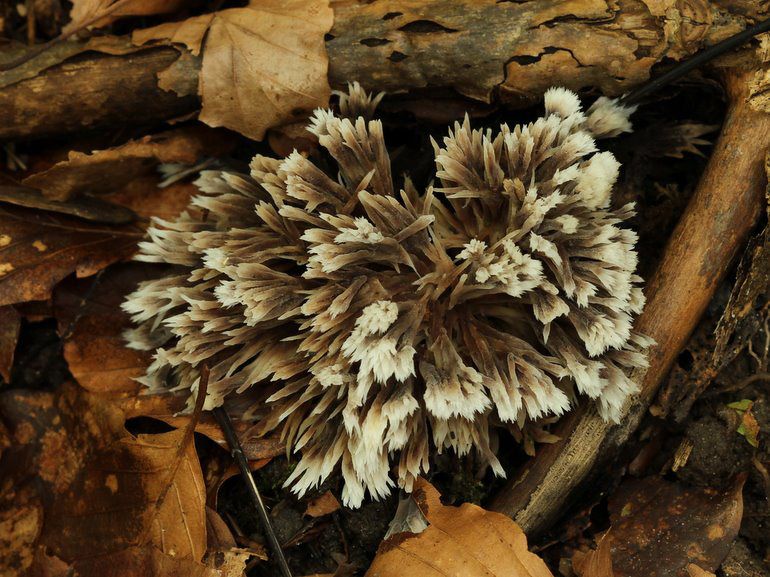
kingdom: Fungi
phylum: Basidiomycota
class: Agaricomycetes
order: Thelephorales
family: Thelephoraceae
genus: Thelephora
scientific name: Thelephora penicillata
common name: fladtrådt frynsesvamp
